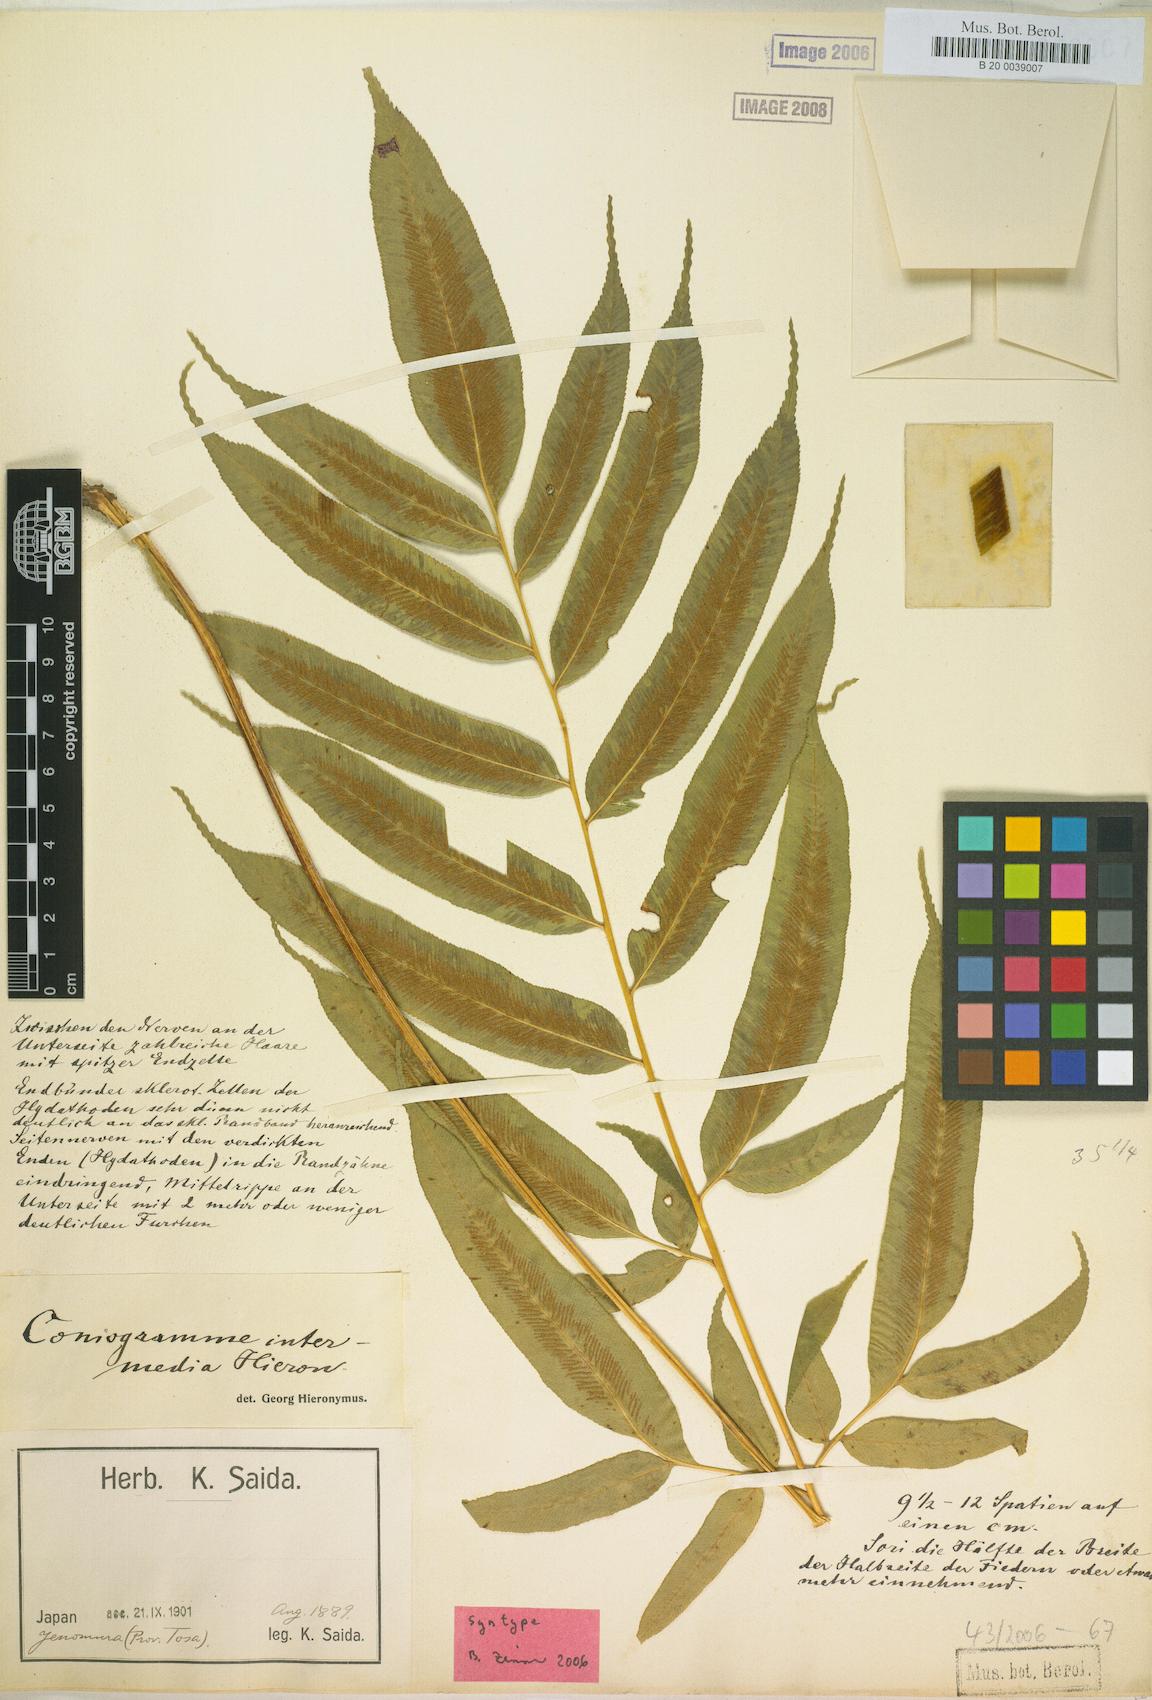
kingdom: Plantae
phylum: Tracheophyta
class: Polypodiopsida
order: Polypodiales
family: Pteridaceae
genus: Coniogramme
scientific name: Coniogramme intermedia
